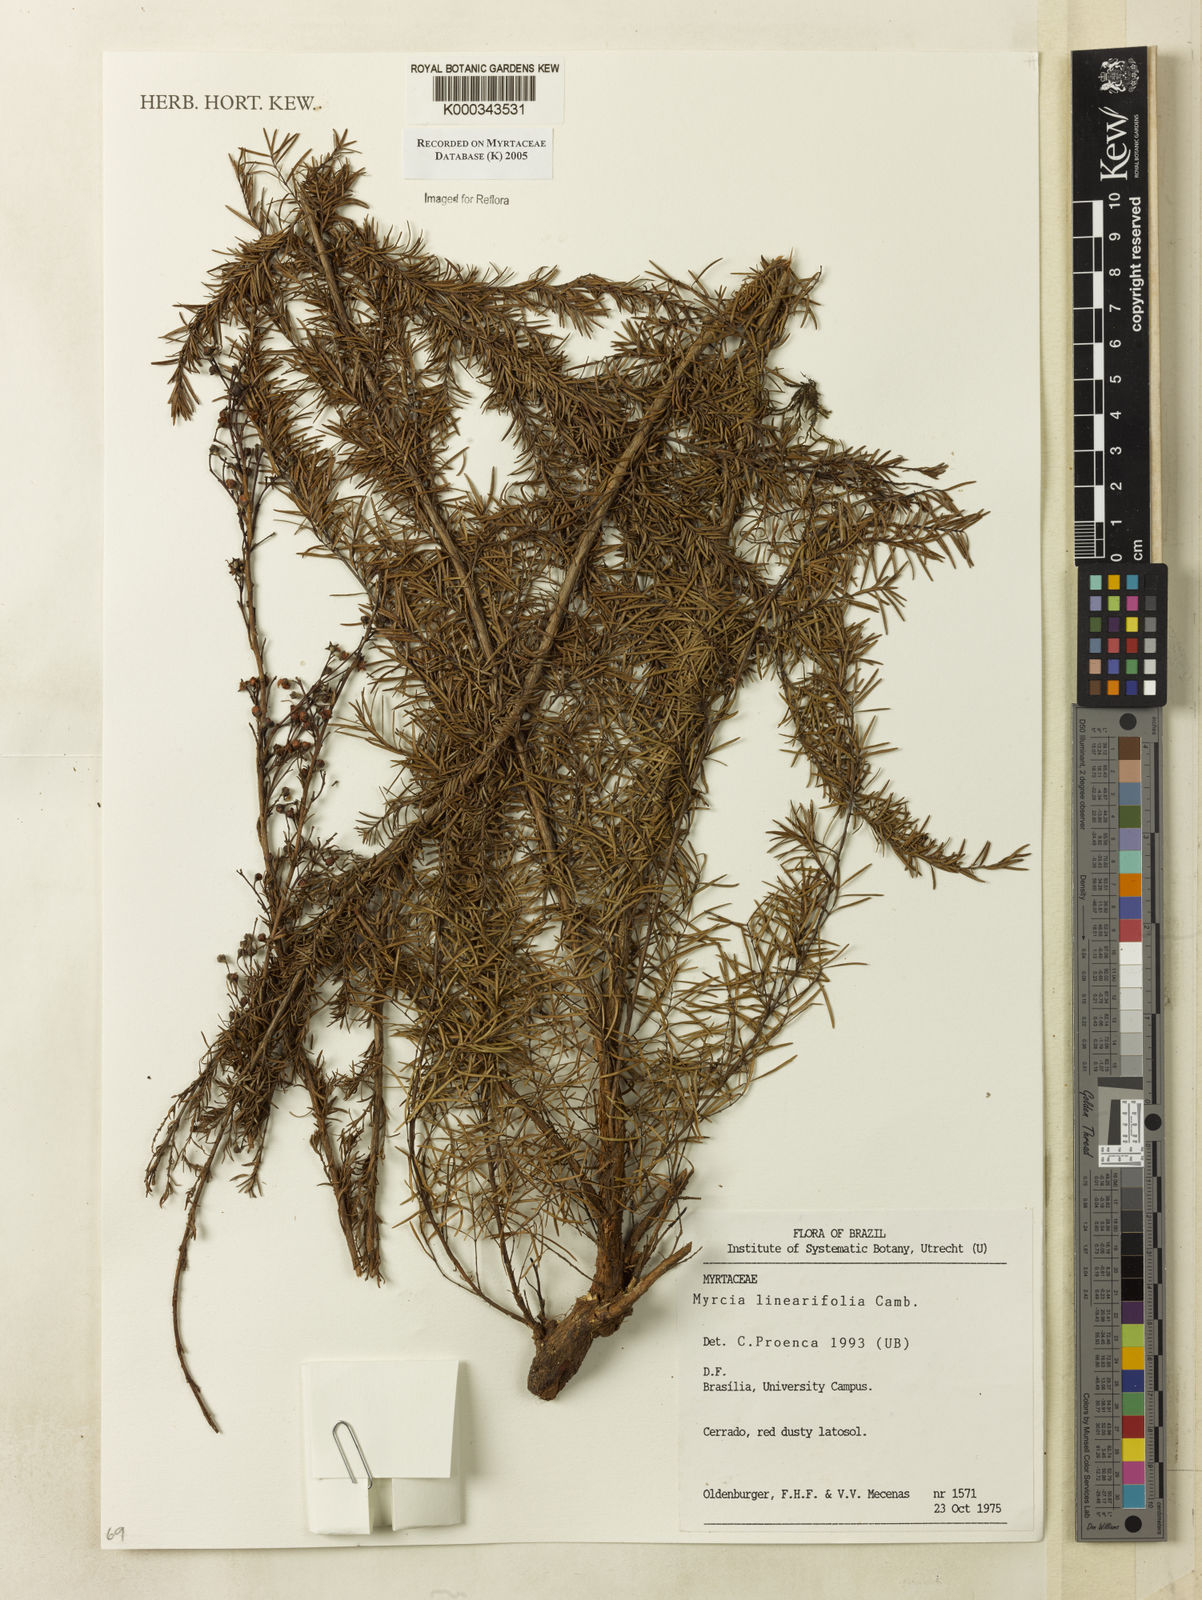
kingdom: Plantae
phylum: Tracheophyta
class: Magnoliopsida
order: Myrtales
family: Myrtaceae
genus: Myrcia
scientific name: Myrcia linearifolia
